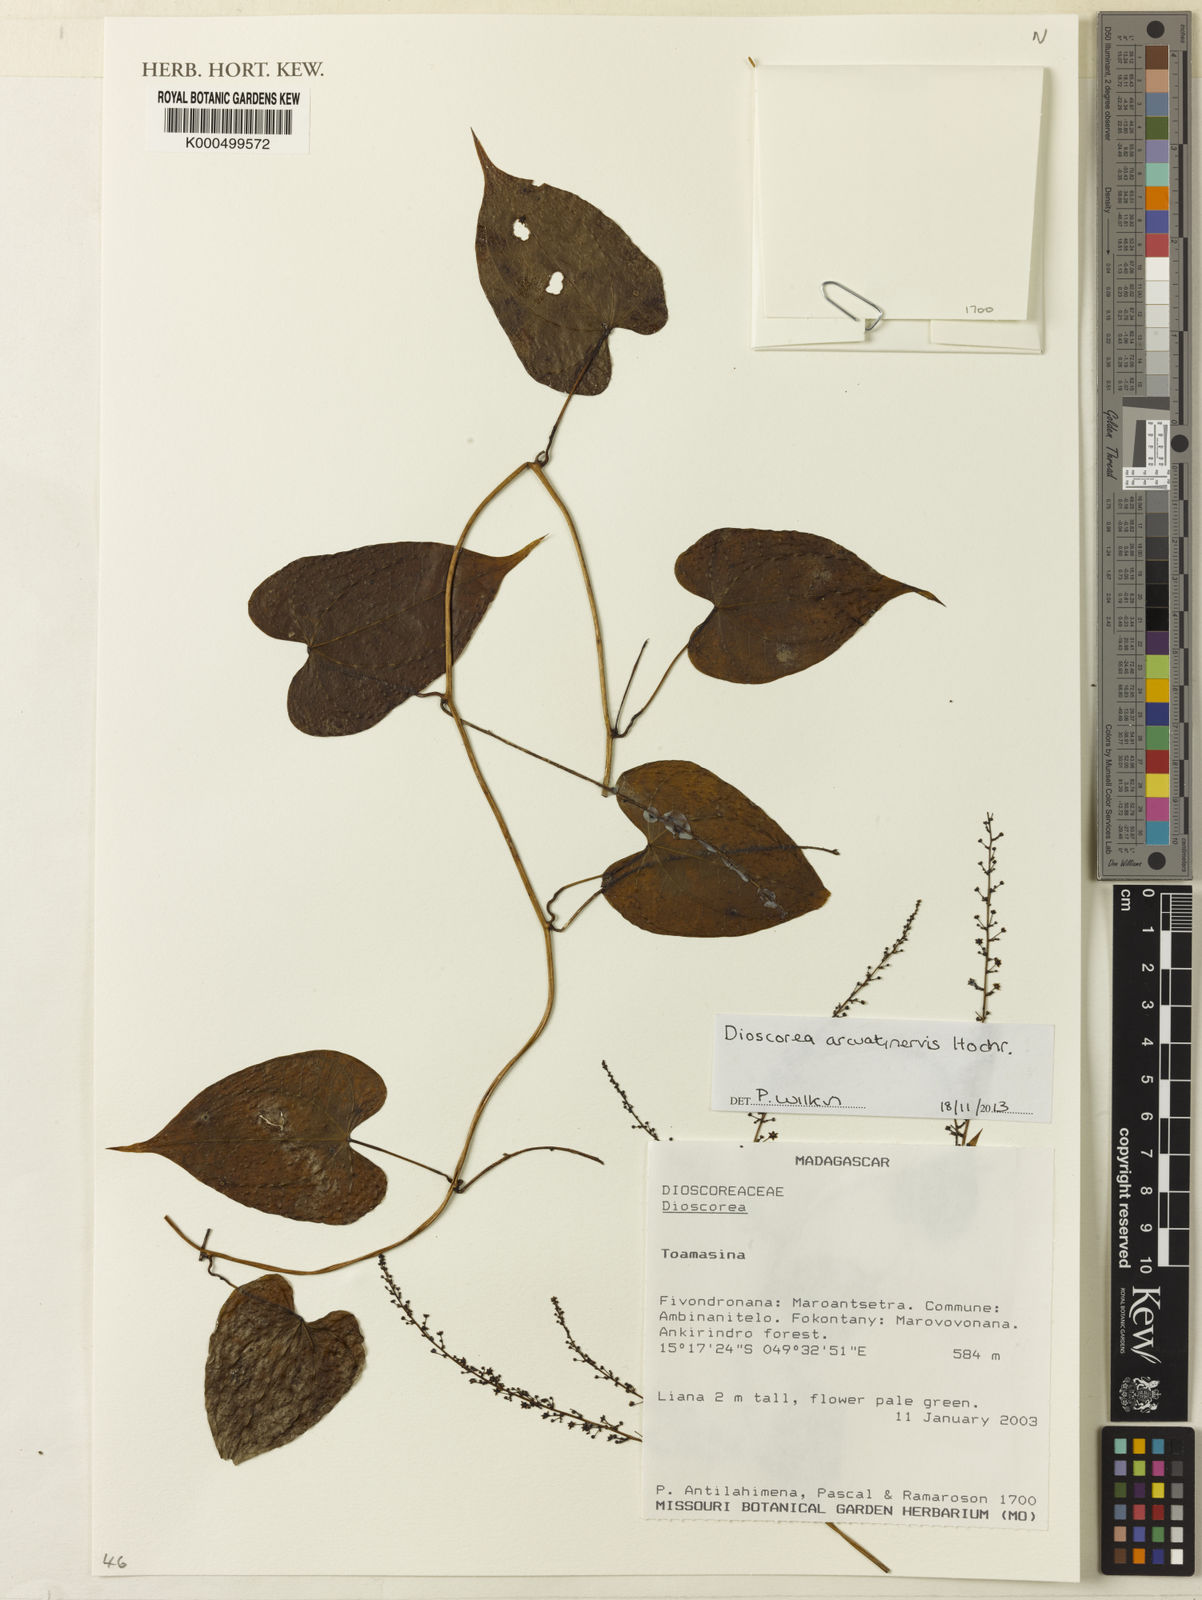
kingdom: Plantae
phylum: Tracheophyta
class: Liliopsida
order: Dioscoreales
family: Dioscoreaceae
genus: Dioscorea
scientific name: Dioscorea arcuatinervis
